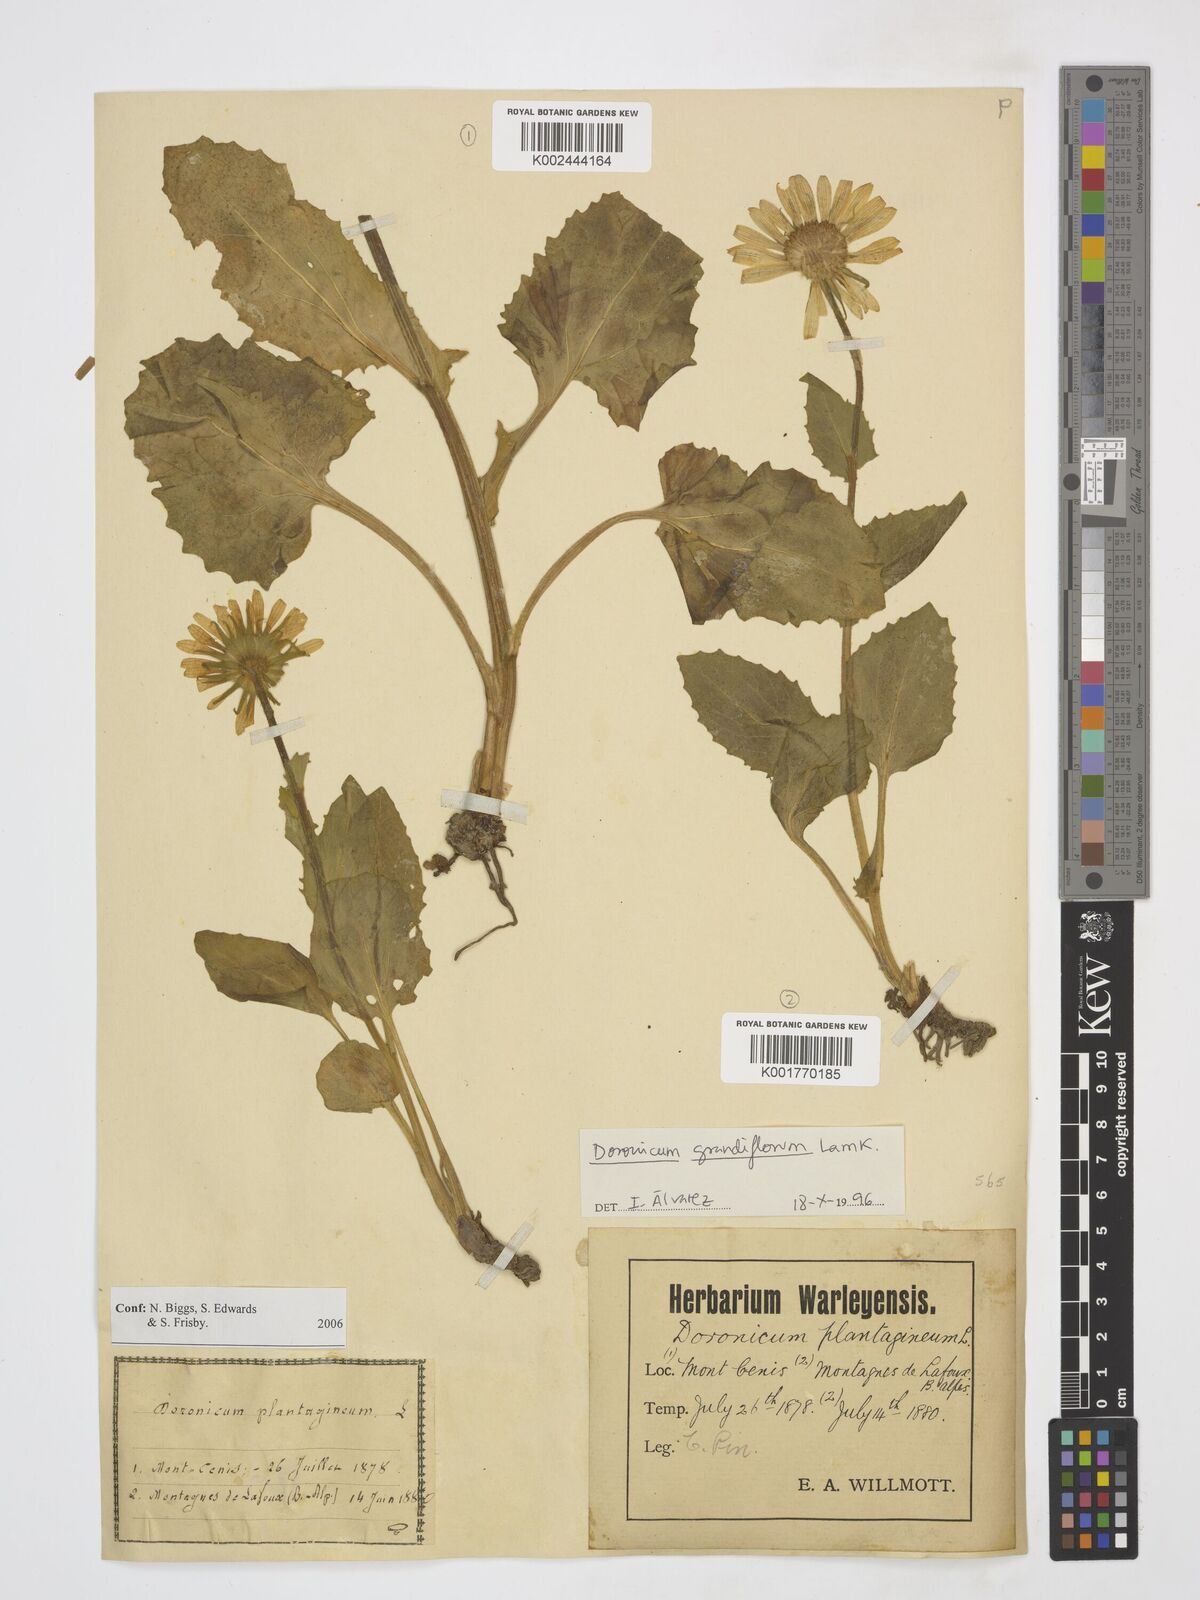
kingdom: Plantae
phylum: Tracheophyta
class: Magnoliopsida
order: Asterales
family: Asteraceae
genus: Doronicum
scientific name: Doronicum grandiflorum
